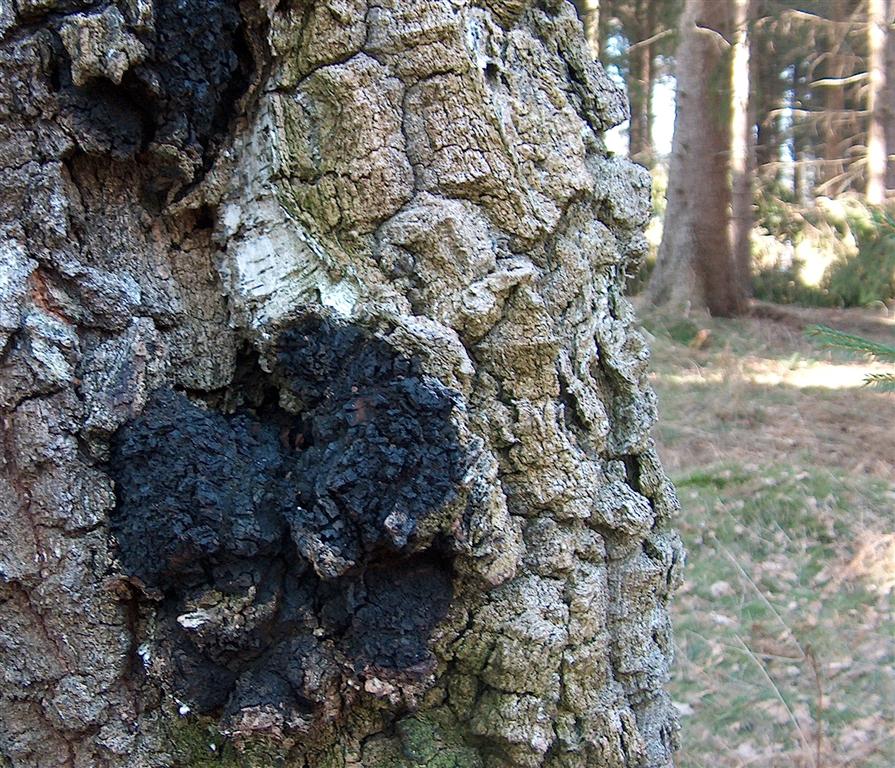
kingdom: Fungi
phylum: Basidiomycota
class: Agaricomycetes
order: Hymenochaetales
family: Hymenochaetaceae
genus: Inonotus
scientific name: Inonotus obliquus
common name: birke-spejlporesvamp
